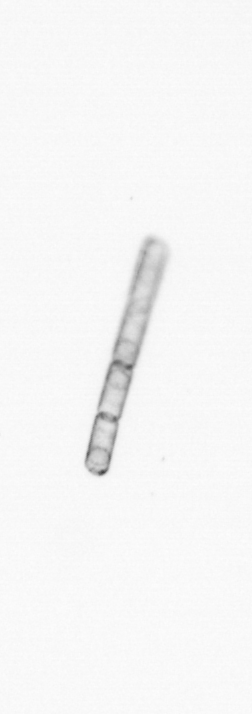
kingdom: Chromista
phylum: Ochrophyta
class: Bacillariophyceae
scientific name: Bacillariophyceae
